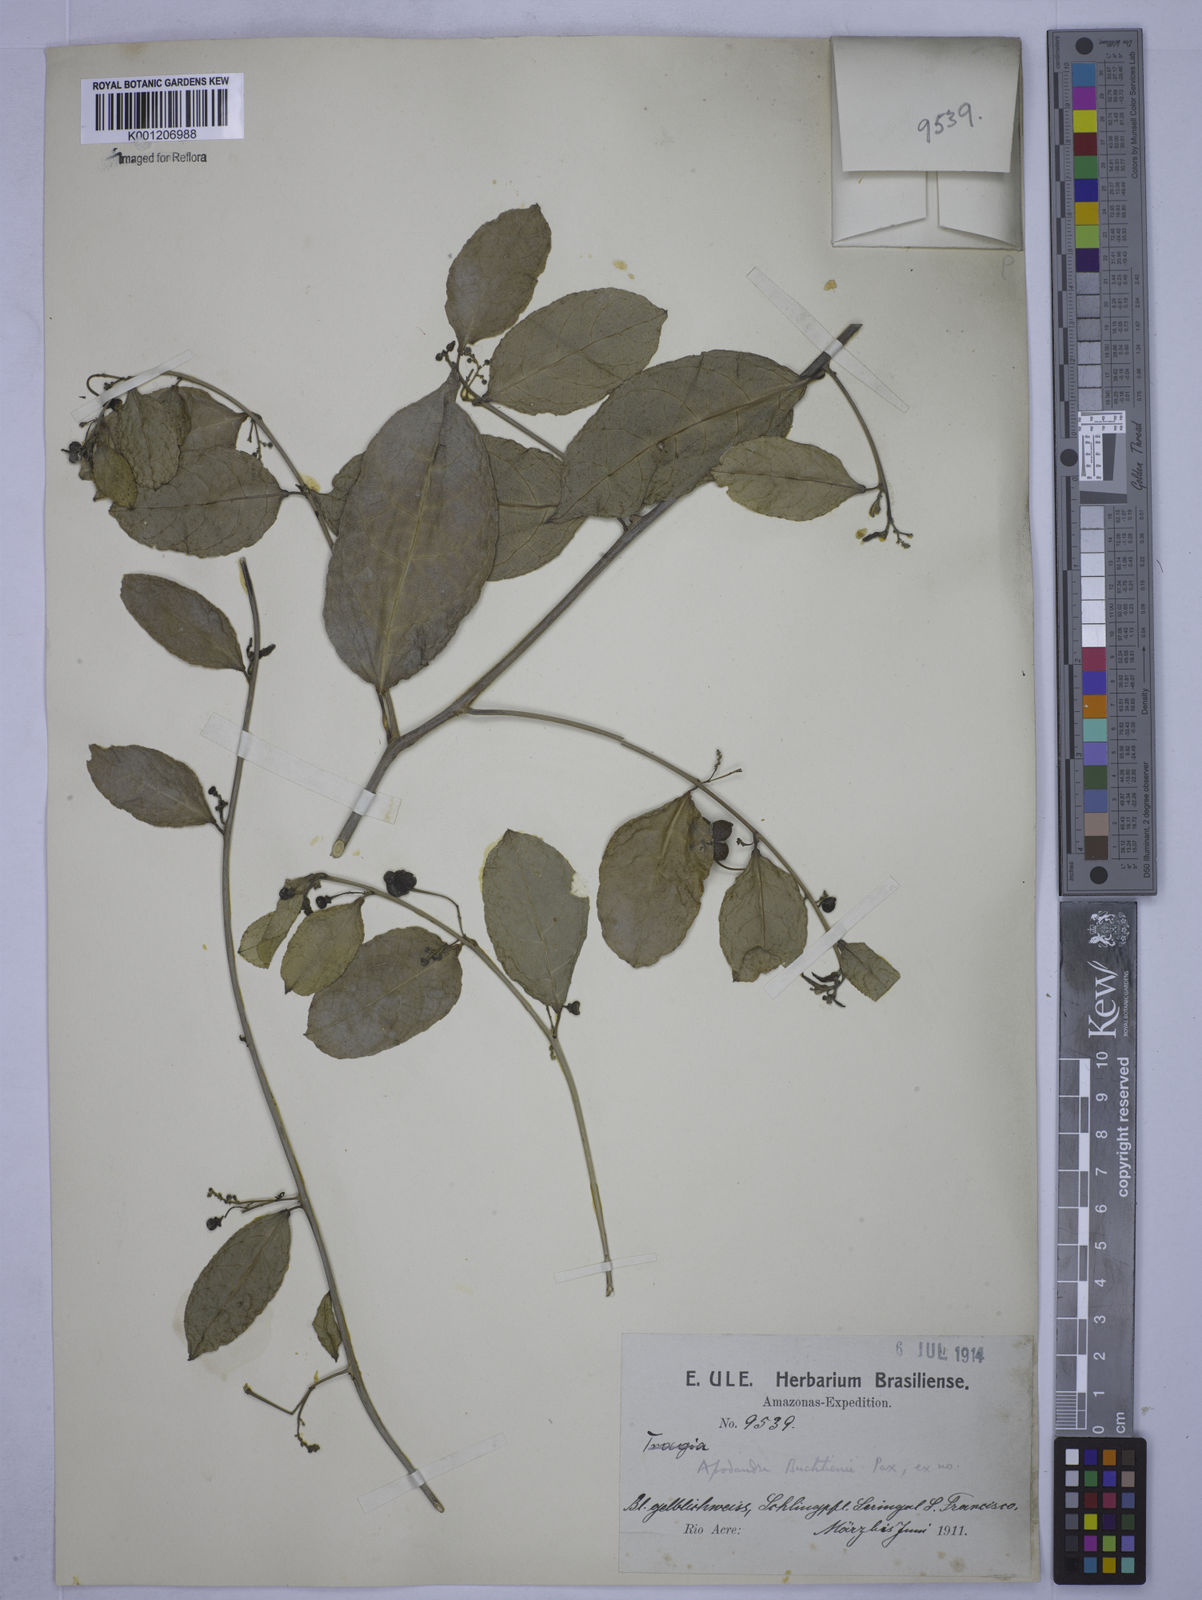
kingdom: Plantae
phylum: Tracheophyta
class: Magnoliopsida
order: Malpighiales
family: Euphorbiaceae
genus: Plukenetia
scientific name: Plukenetia
